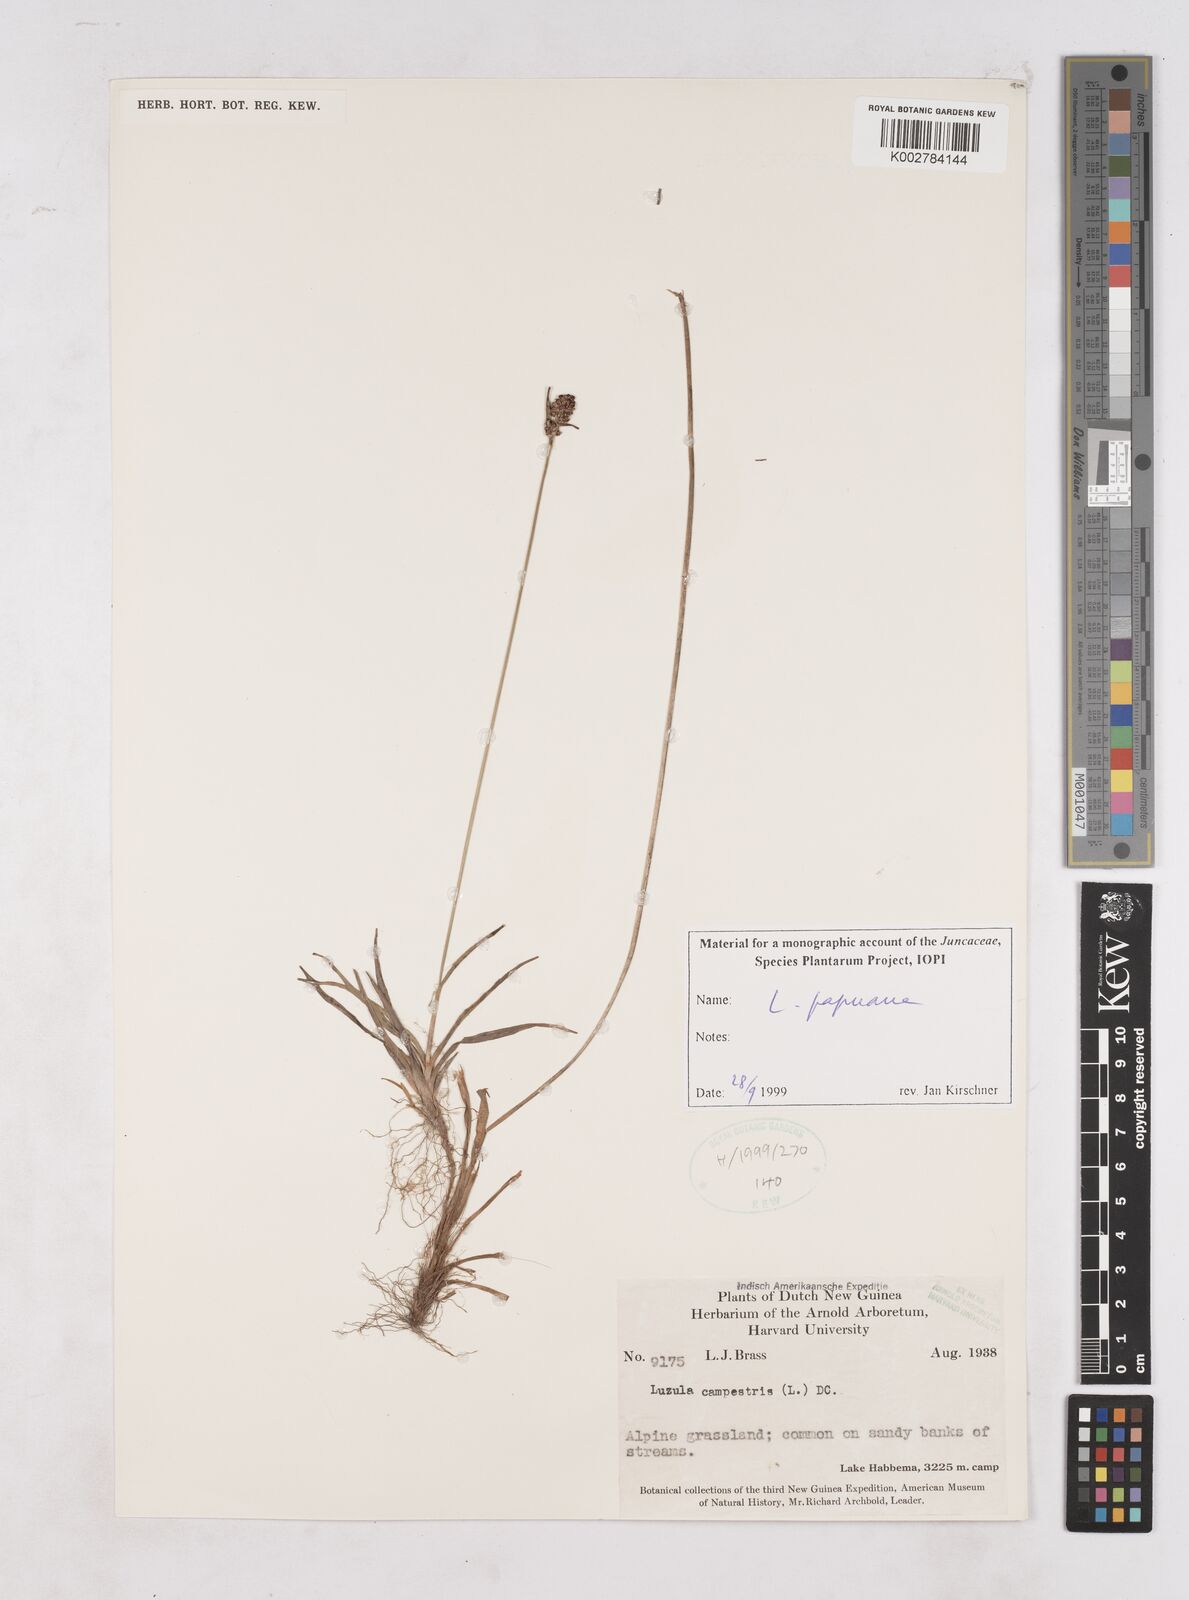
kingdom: Plantae
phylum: Tracheophyta
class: Liliopsida
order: Poales
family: Juncaceae
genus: Luzula
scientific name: Luzula papuana
